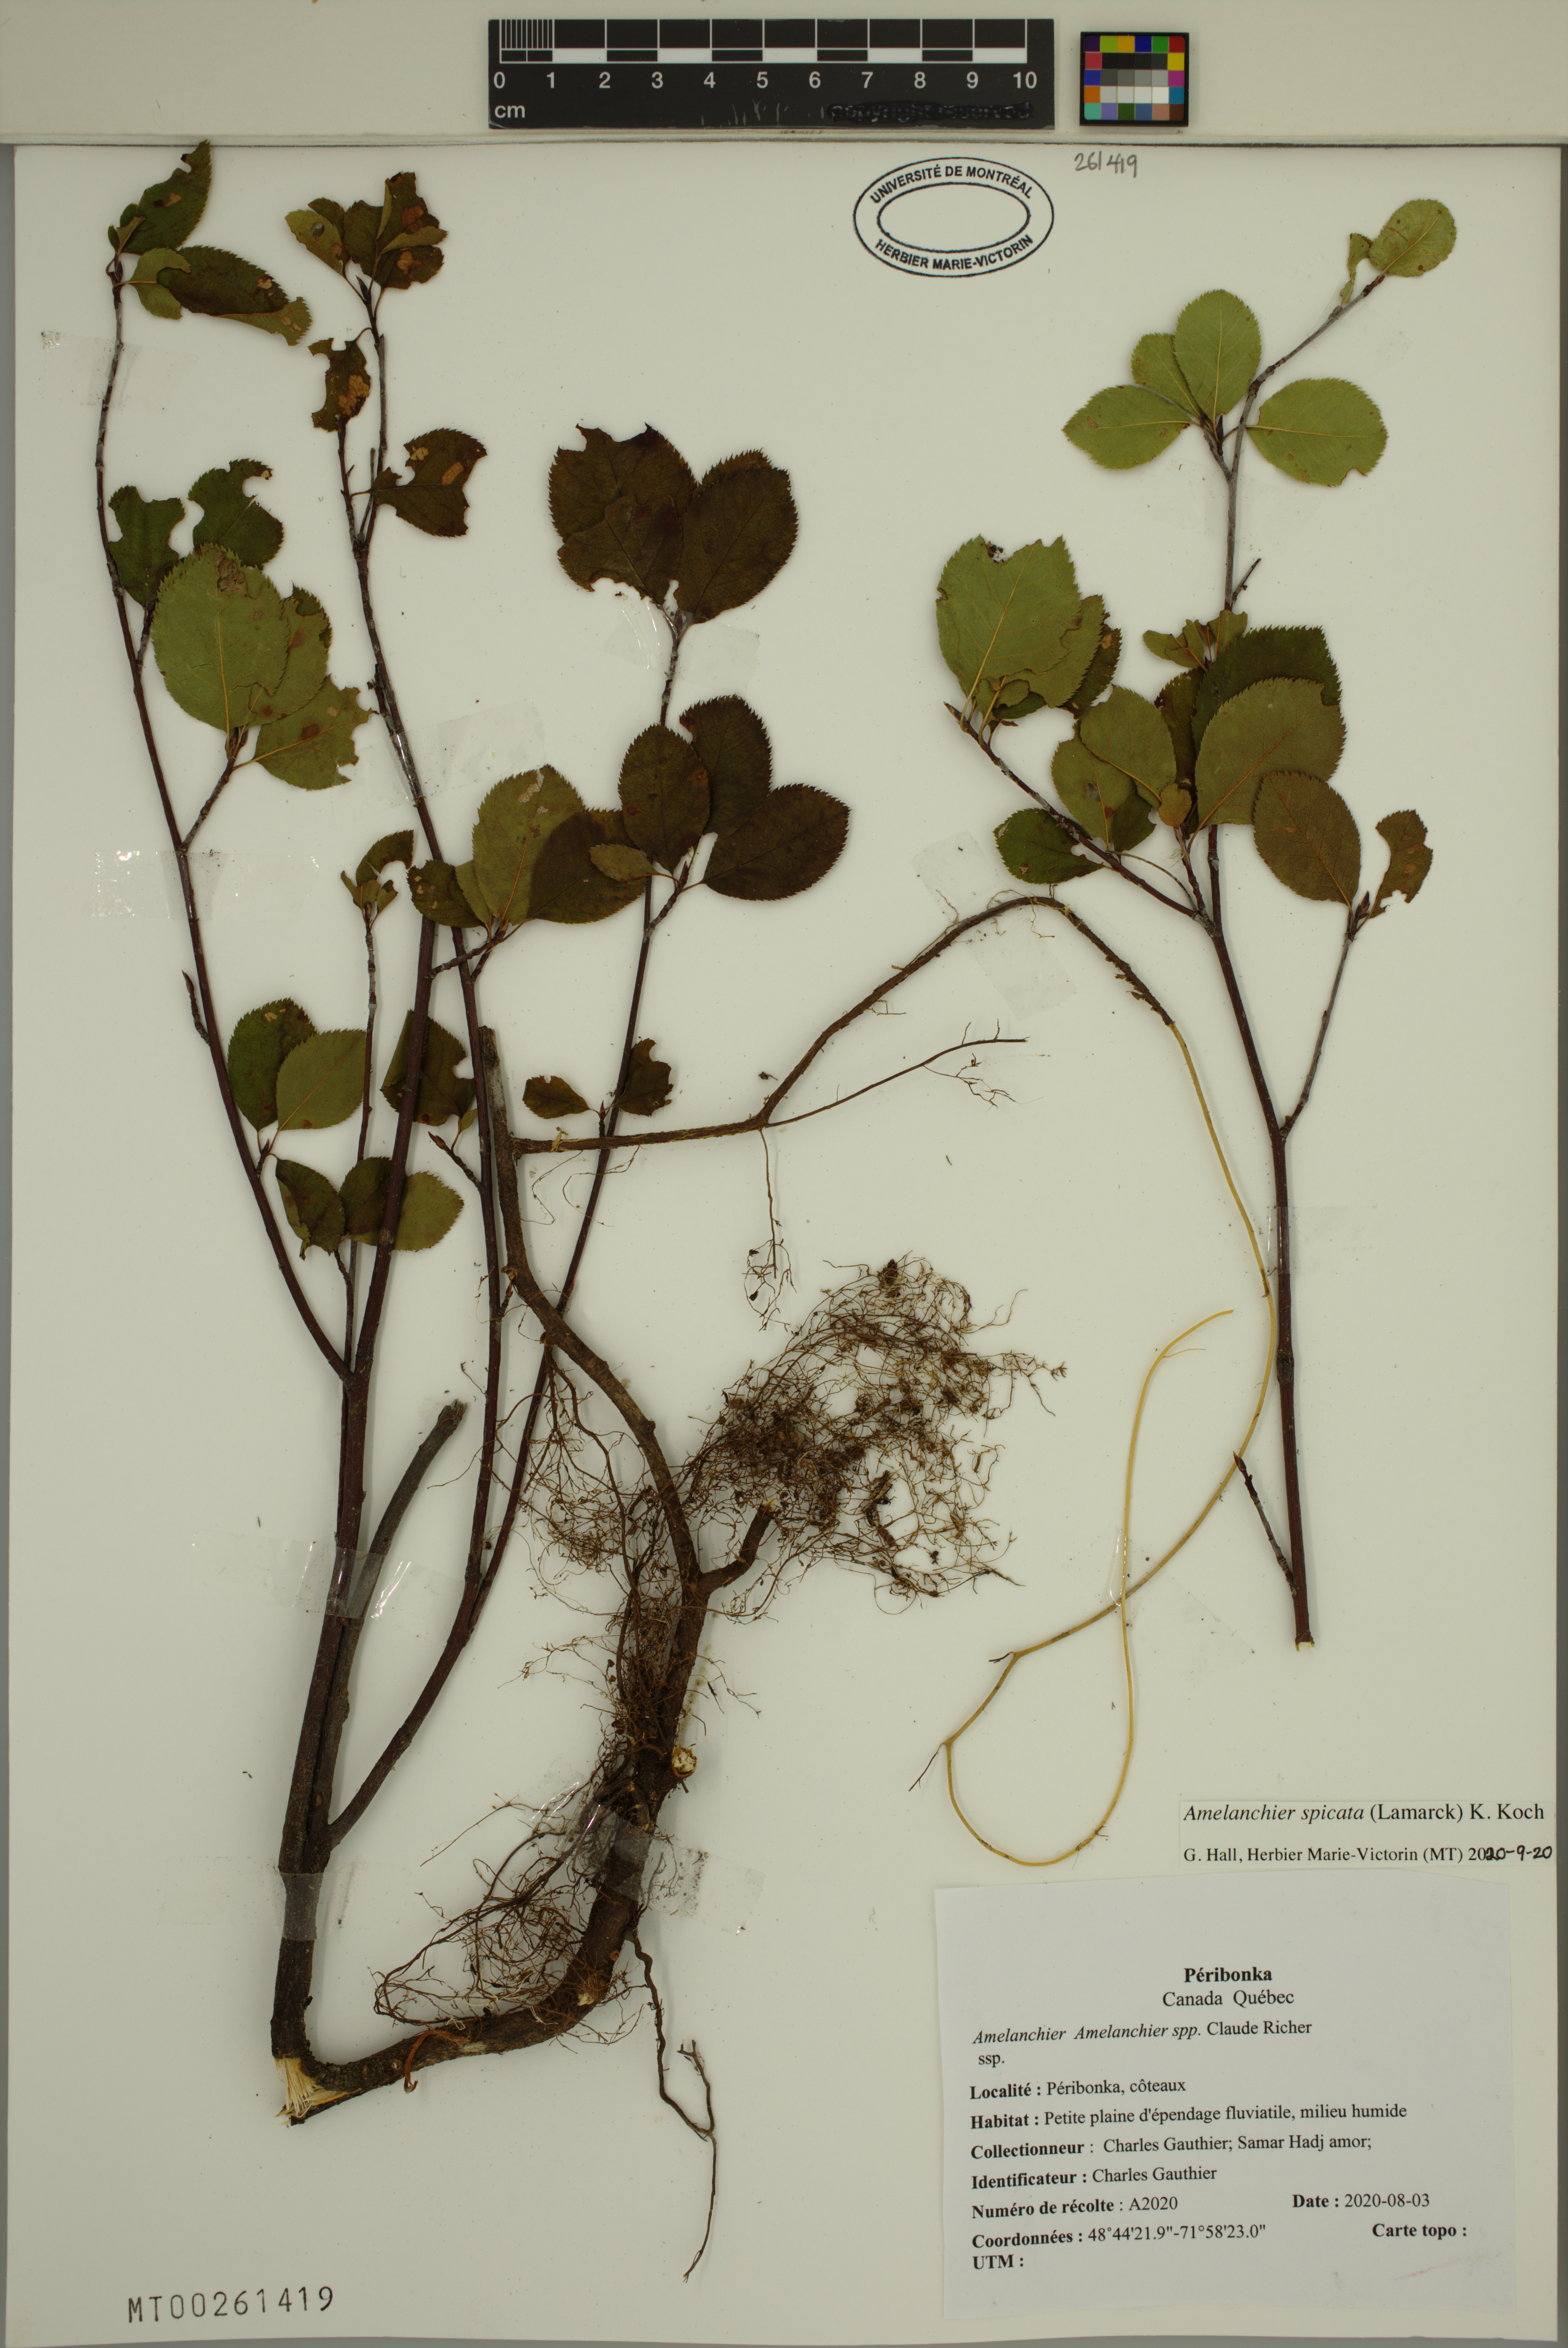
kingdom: Plantae
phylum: Tracheophyta
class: Magnoliopsida
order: Rosales
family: Rosaceae
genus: Amelanchier
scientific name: Amelanchier humilis
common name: Low juneberry
